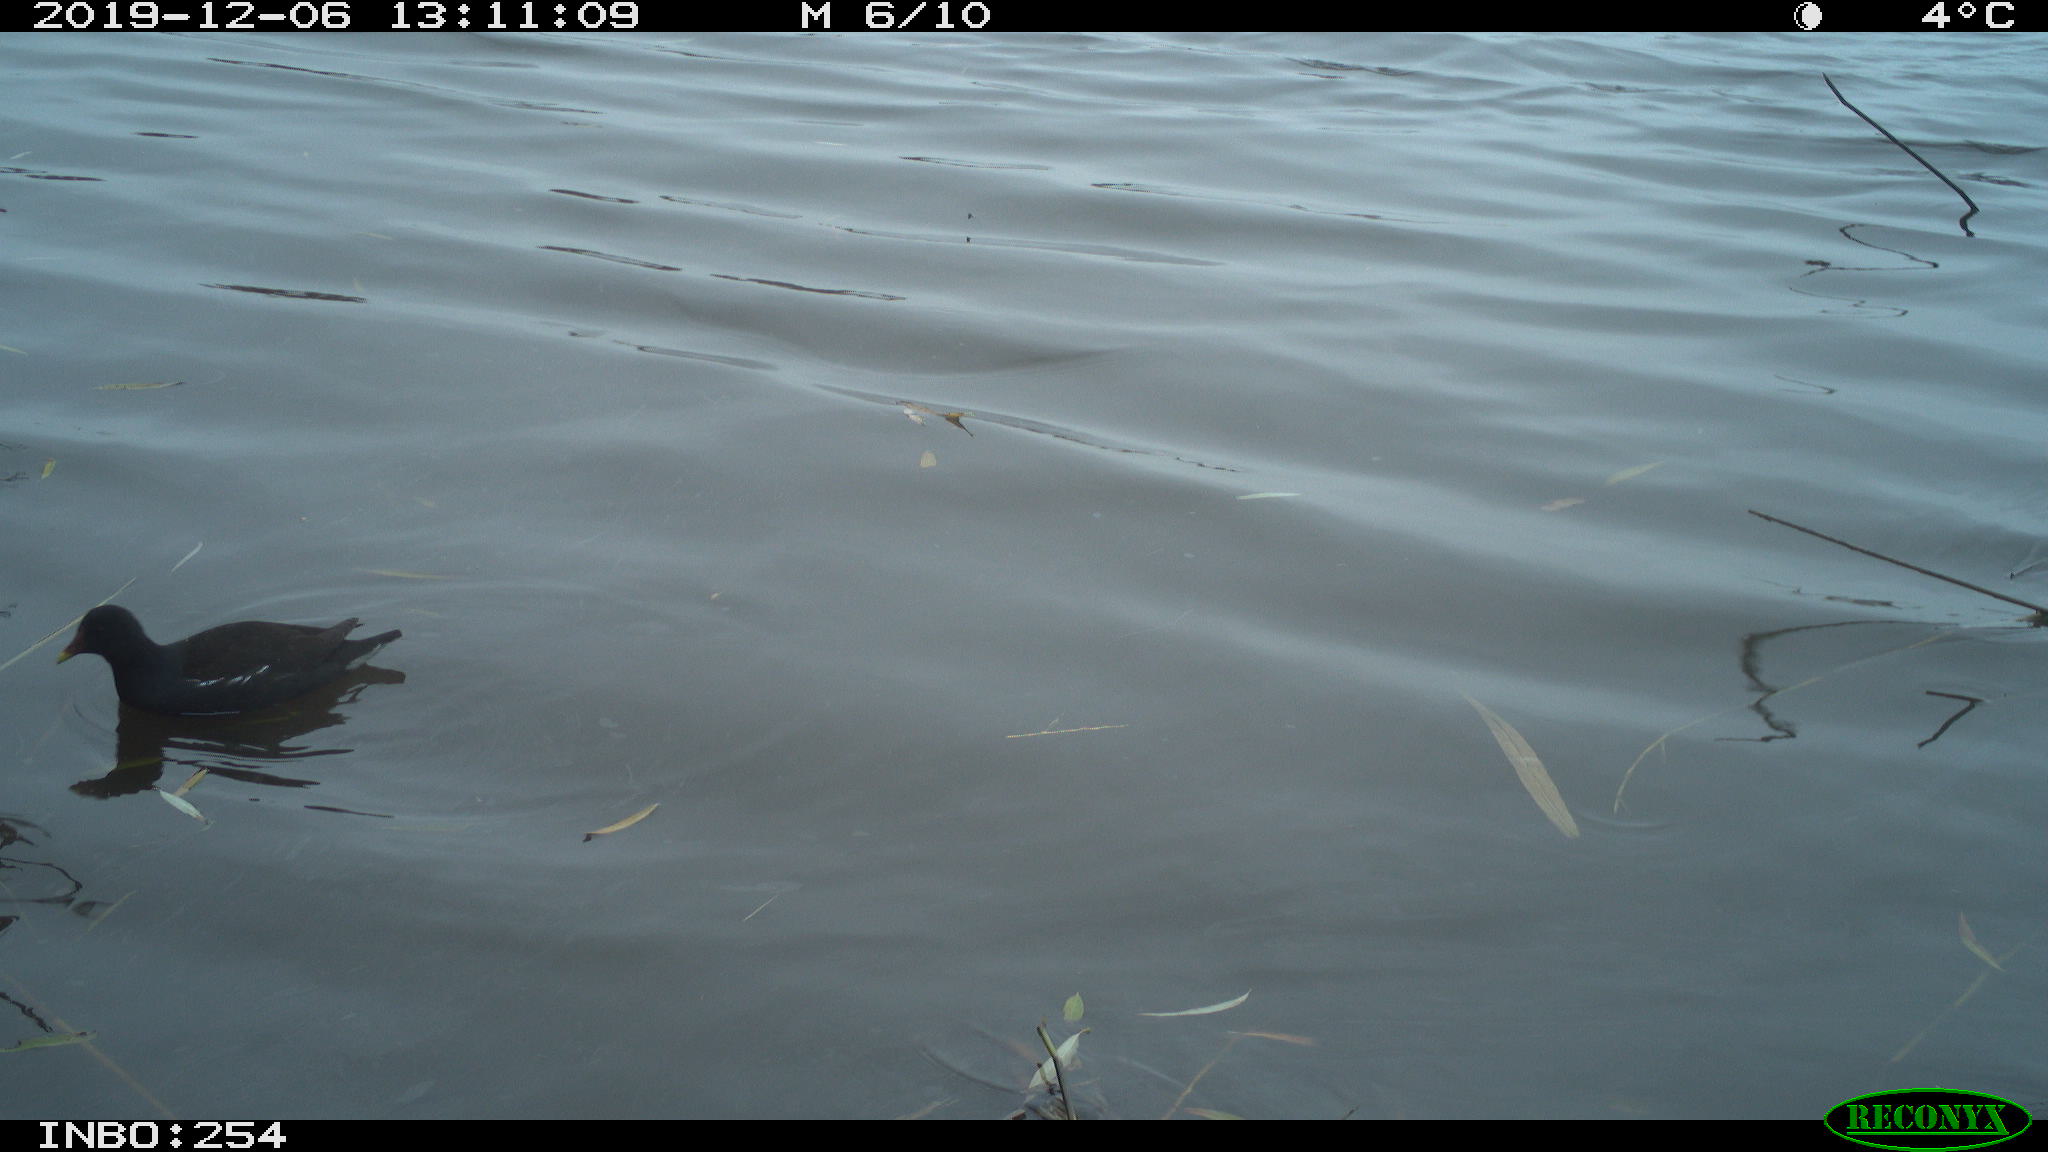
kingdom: Animalia
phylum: Chordata
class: Aves
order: Gruiformes
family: Rallidae
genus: Gallinula
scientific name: Gallinula chloropus
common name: Common moorhen
